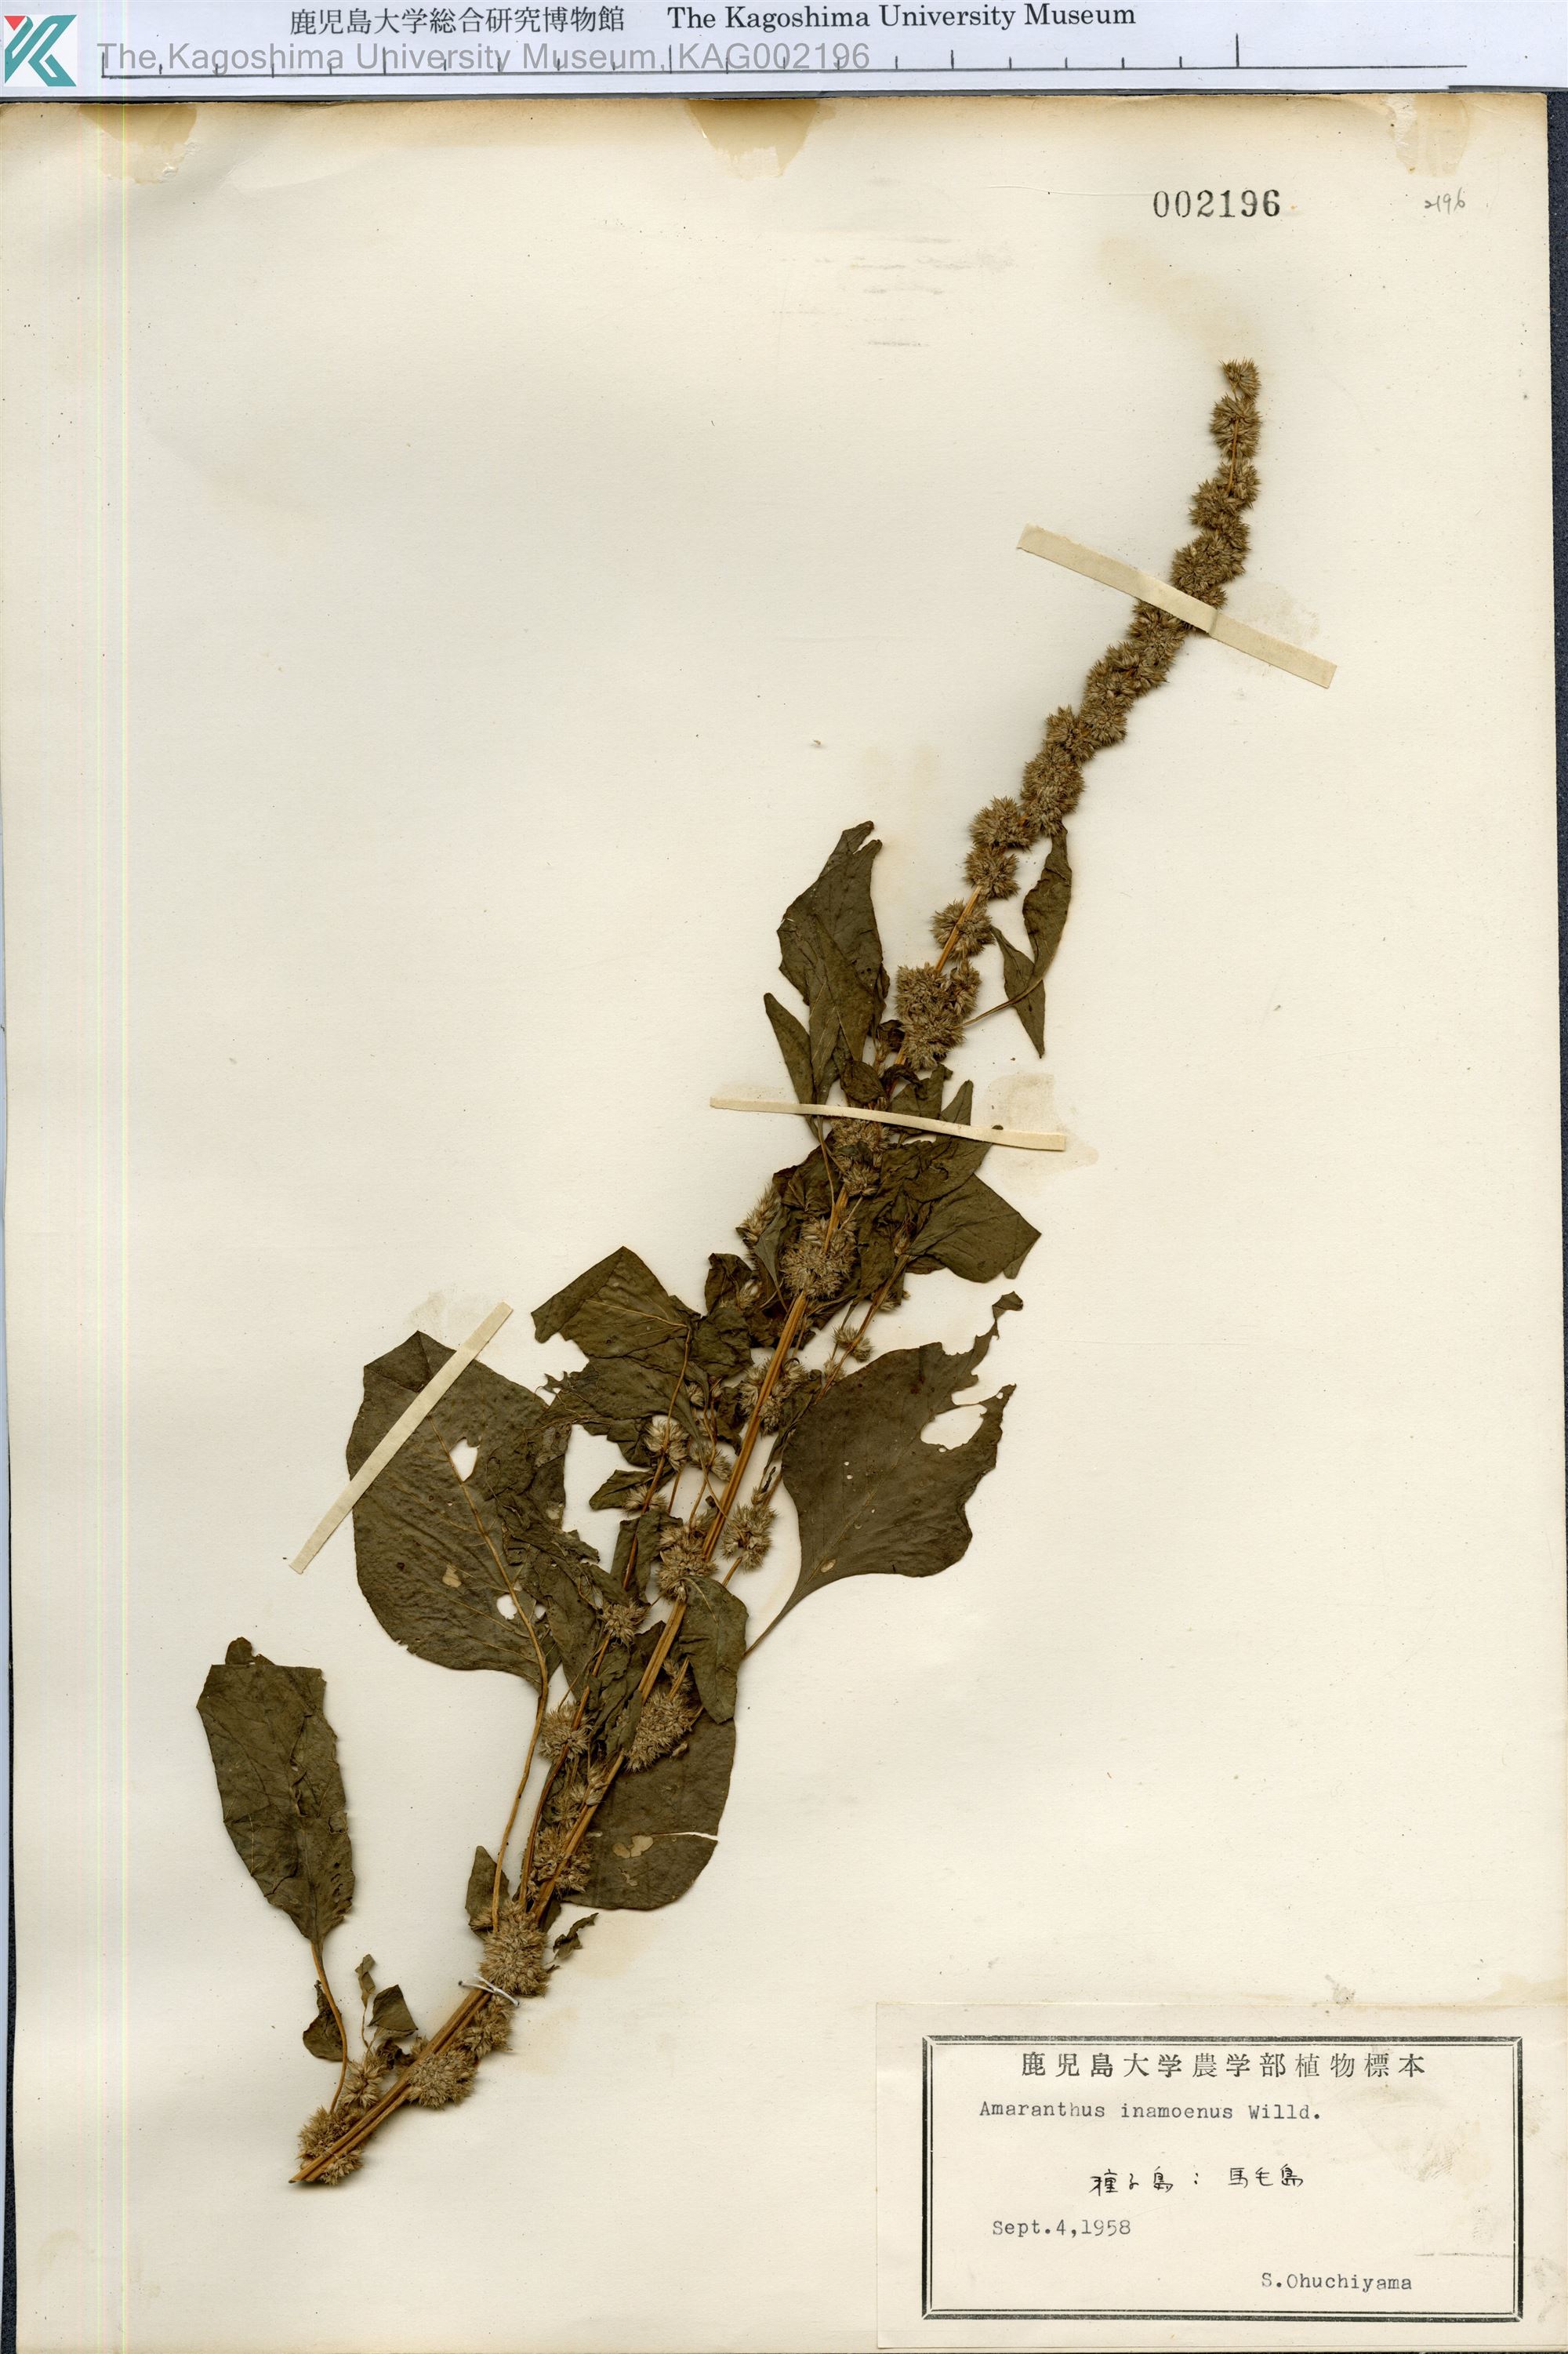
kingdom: Plantae
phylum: Tracheophyta
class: Magnoliopsida
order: Caryophyllales
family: Amaranthaceae
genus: Amaranthus
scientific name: Amaranthus tricolor
